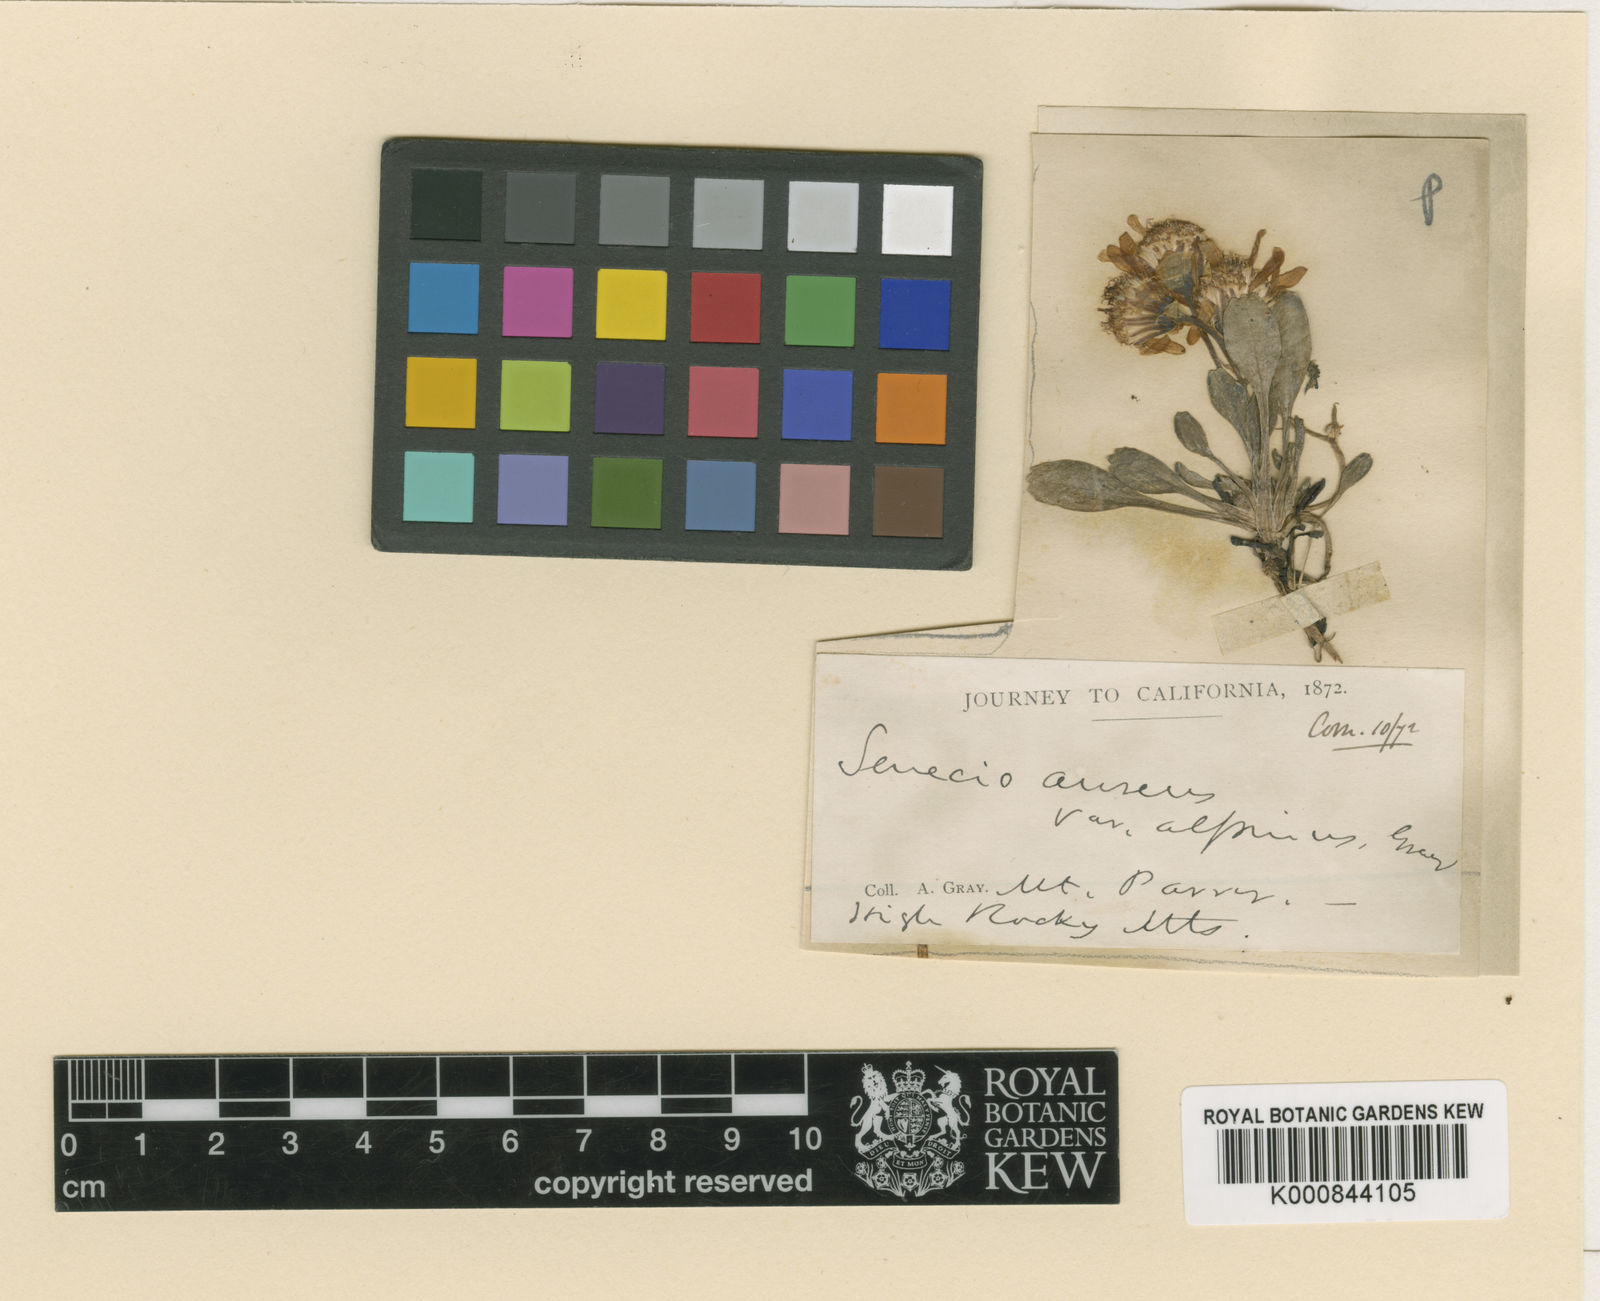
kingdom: Plantae
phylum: Tracheophyta
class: Magnoliopsida
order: Asterales
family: Asteraceae
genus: Packera
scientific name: Packera
